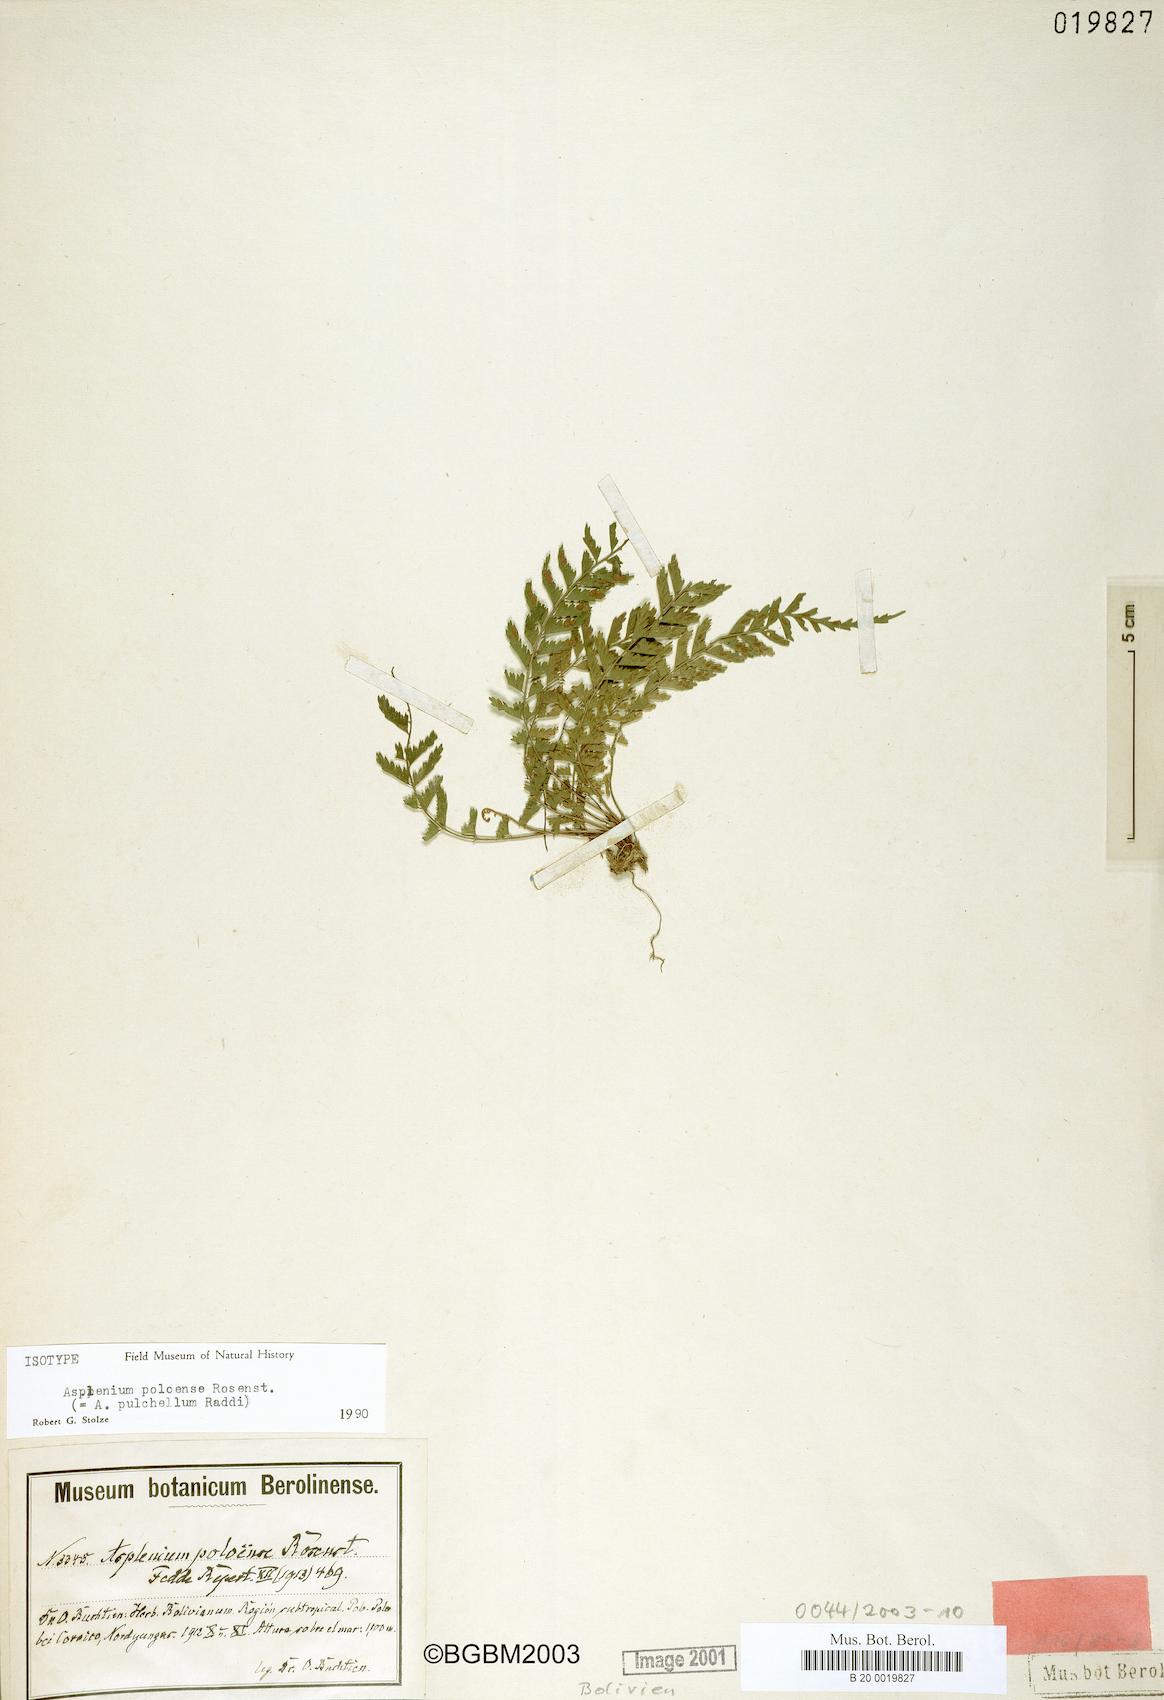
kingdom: Plantae
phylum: Tracheophyta
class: Polypodiopsida
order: Polypodiales
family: Aspleniaceae
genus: Asplenium
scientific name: Asplenium depauperatum
